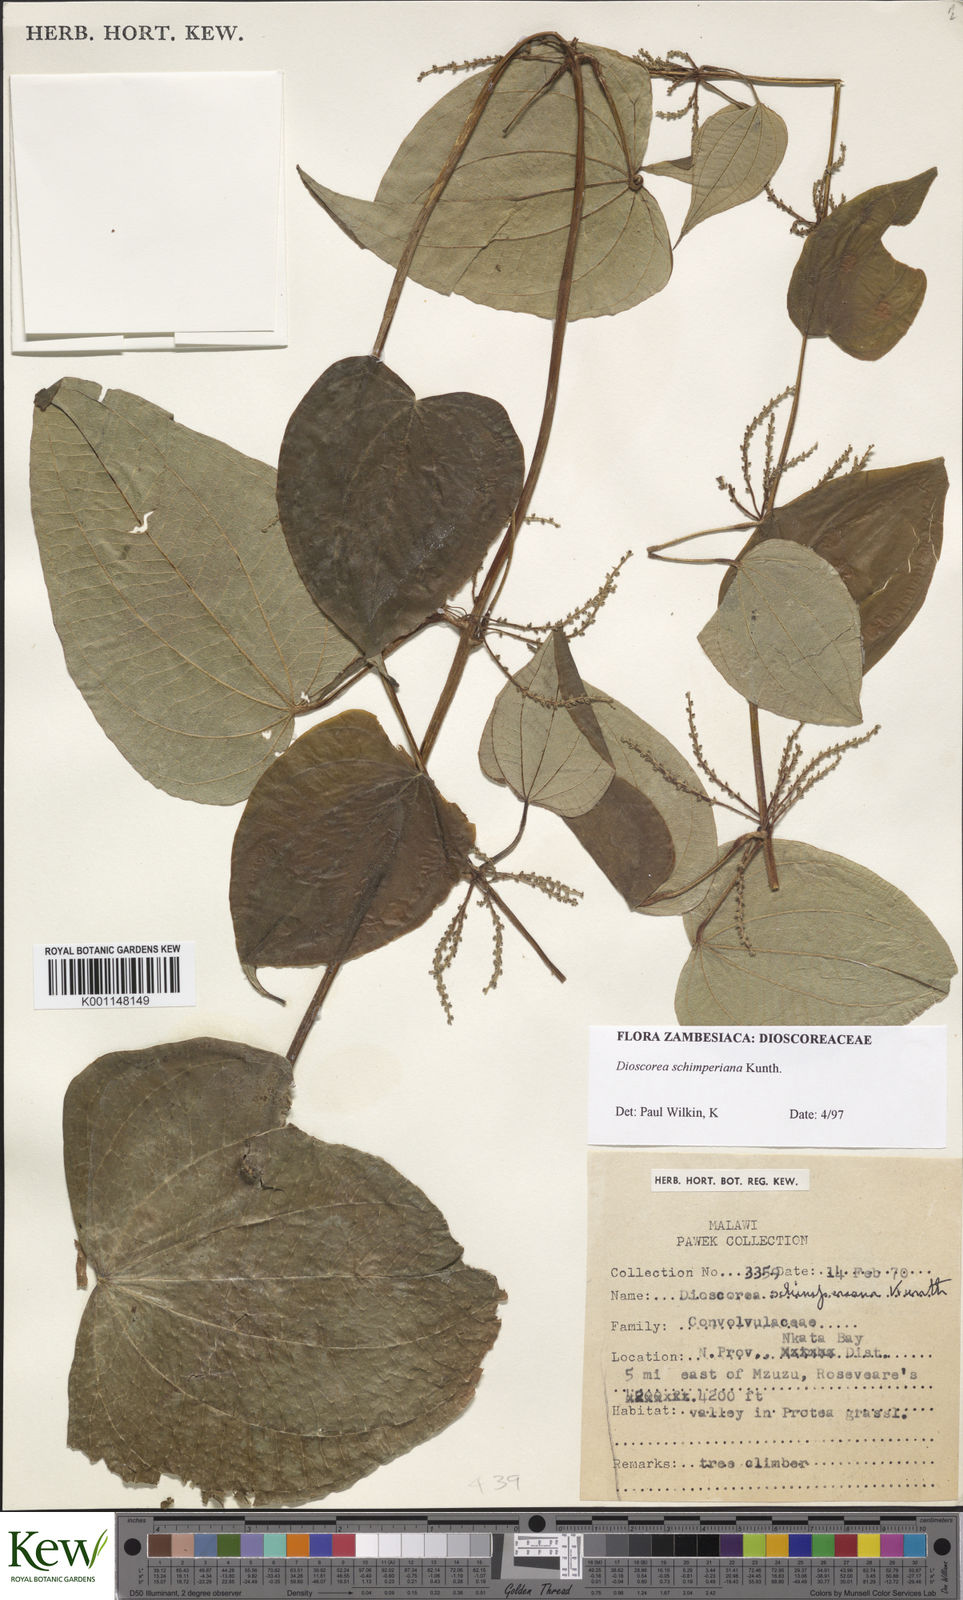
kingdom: Plantae
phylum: Tracheophyta
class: Liliopsida
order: Dioscoreales
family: Dioscoreaceae
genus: Dioscorea
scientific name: Dioscorea schimperiana
